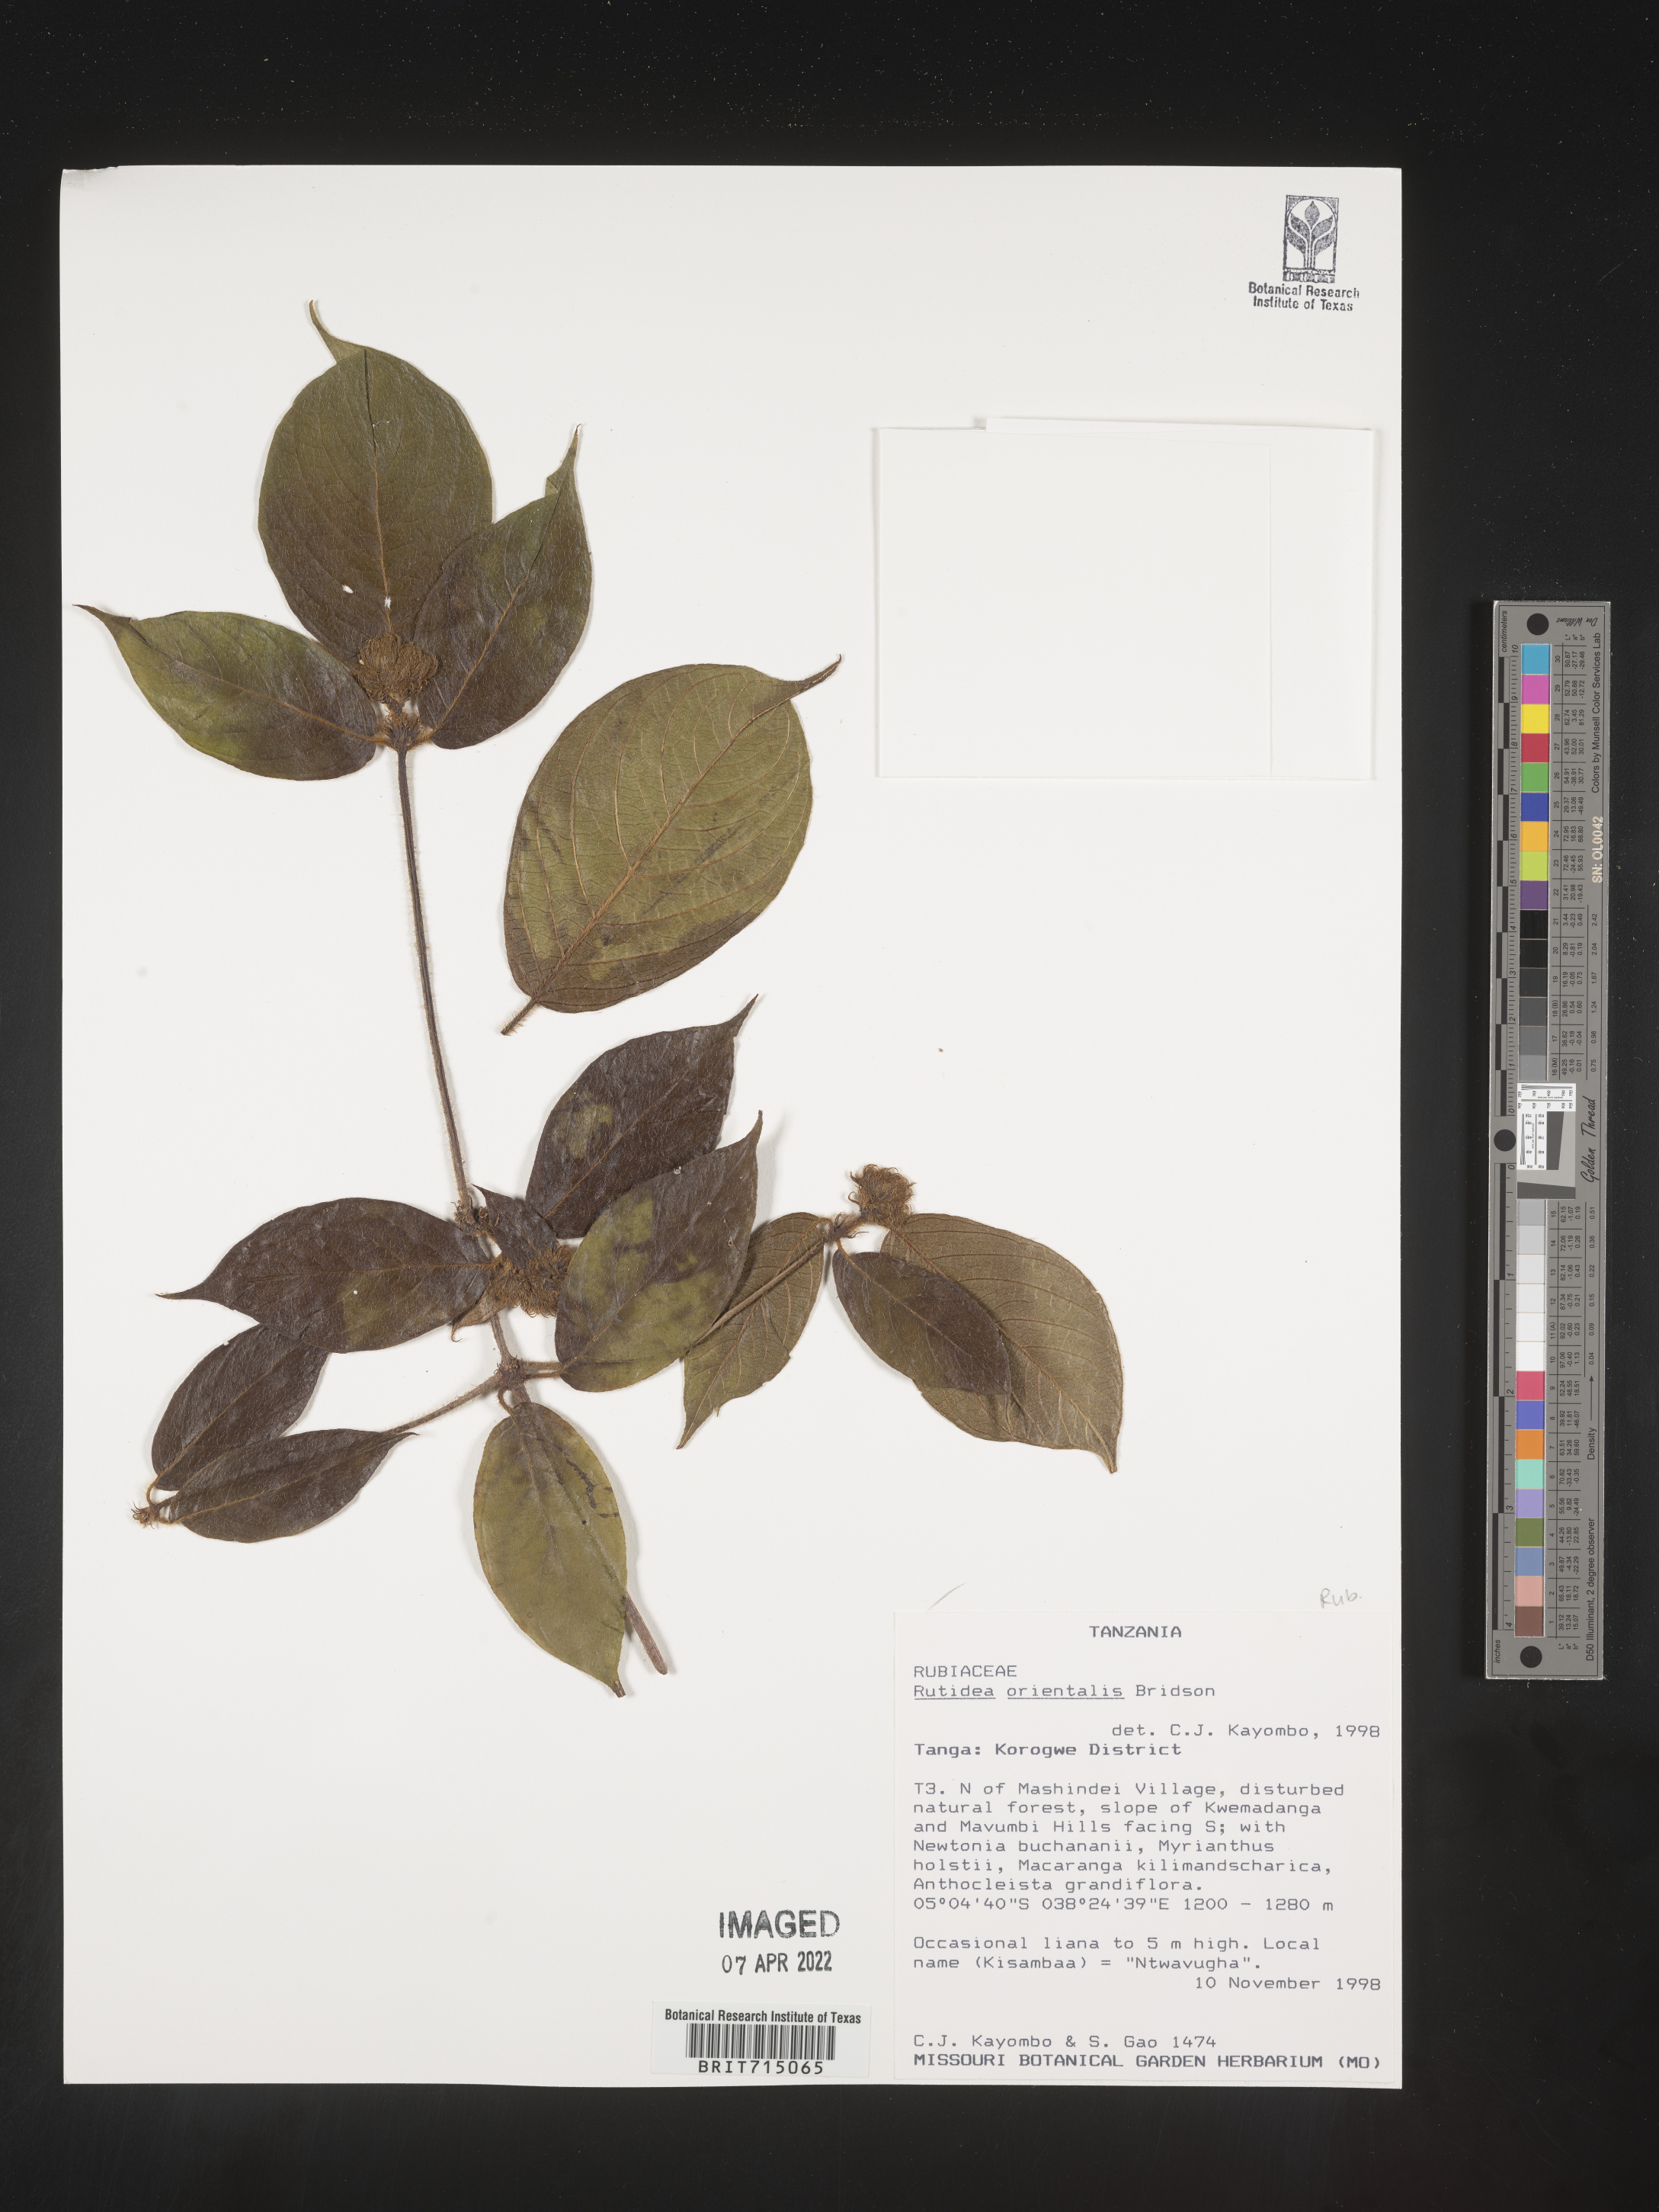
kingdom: Plantae
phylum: Tracheophyta
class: Magnoliopsida
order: Gentianales
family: Rubiaceae
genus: Rutidea
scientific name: Rutidea
